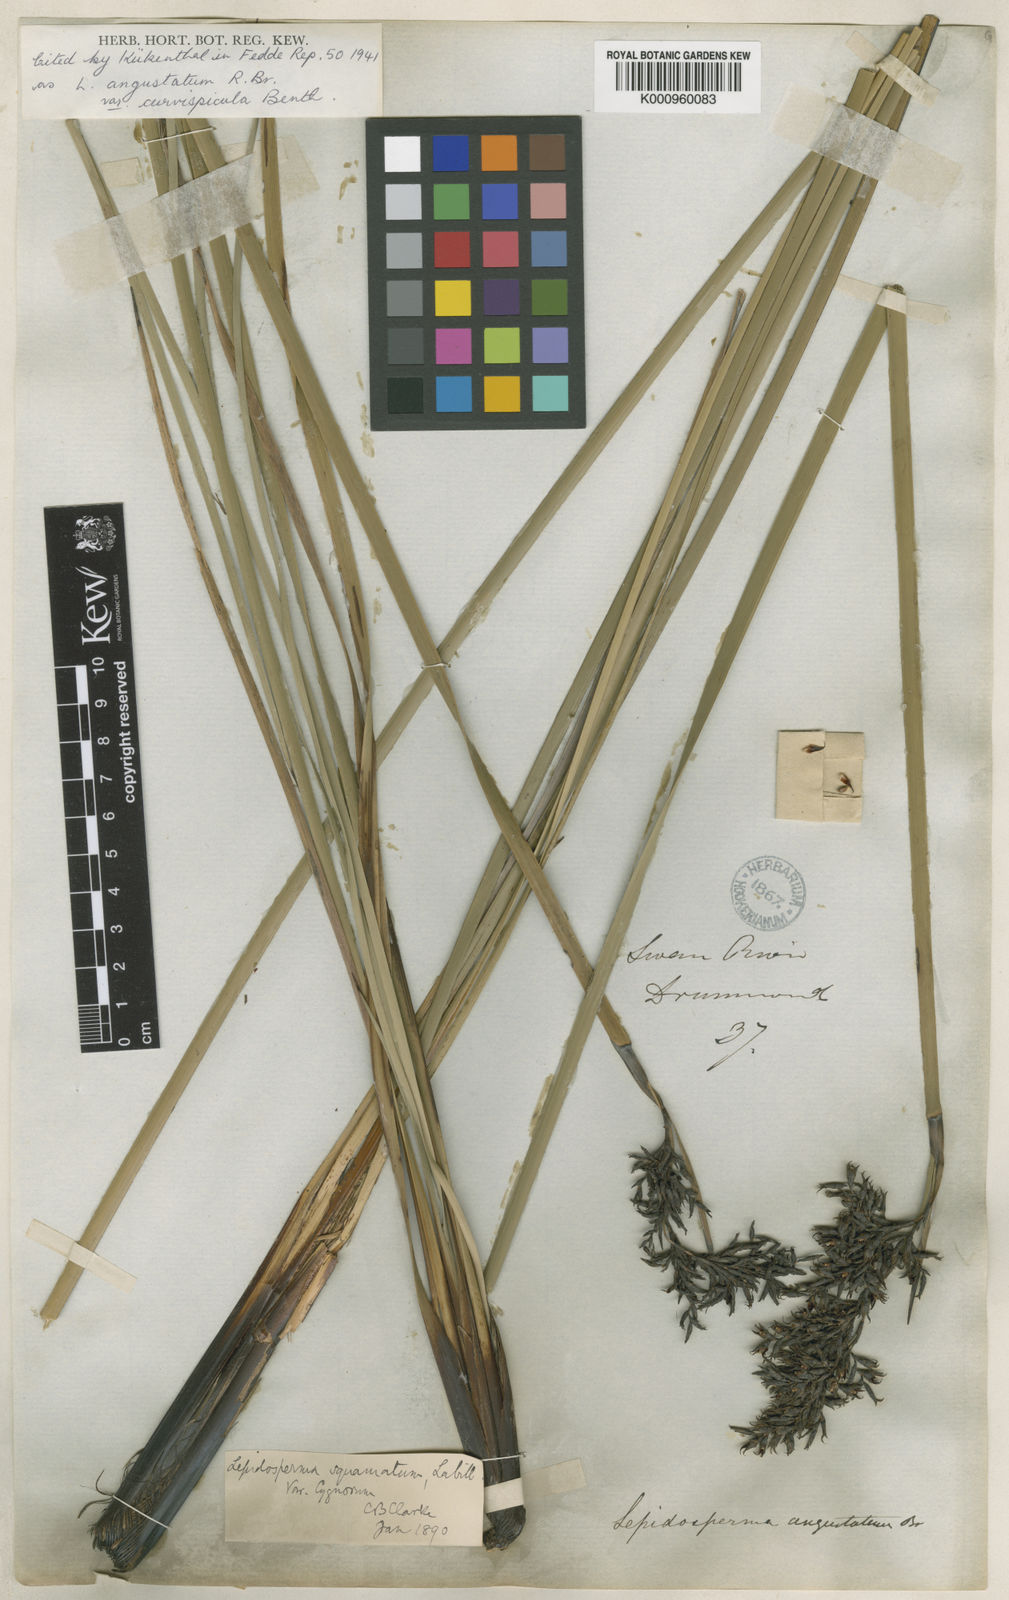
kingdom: Plantae
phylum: Tracheophyta
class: Liliopsida
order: Poales
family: Cyperaceae
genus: Lepidosperma
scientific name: Lepidosperma angustatum
